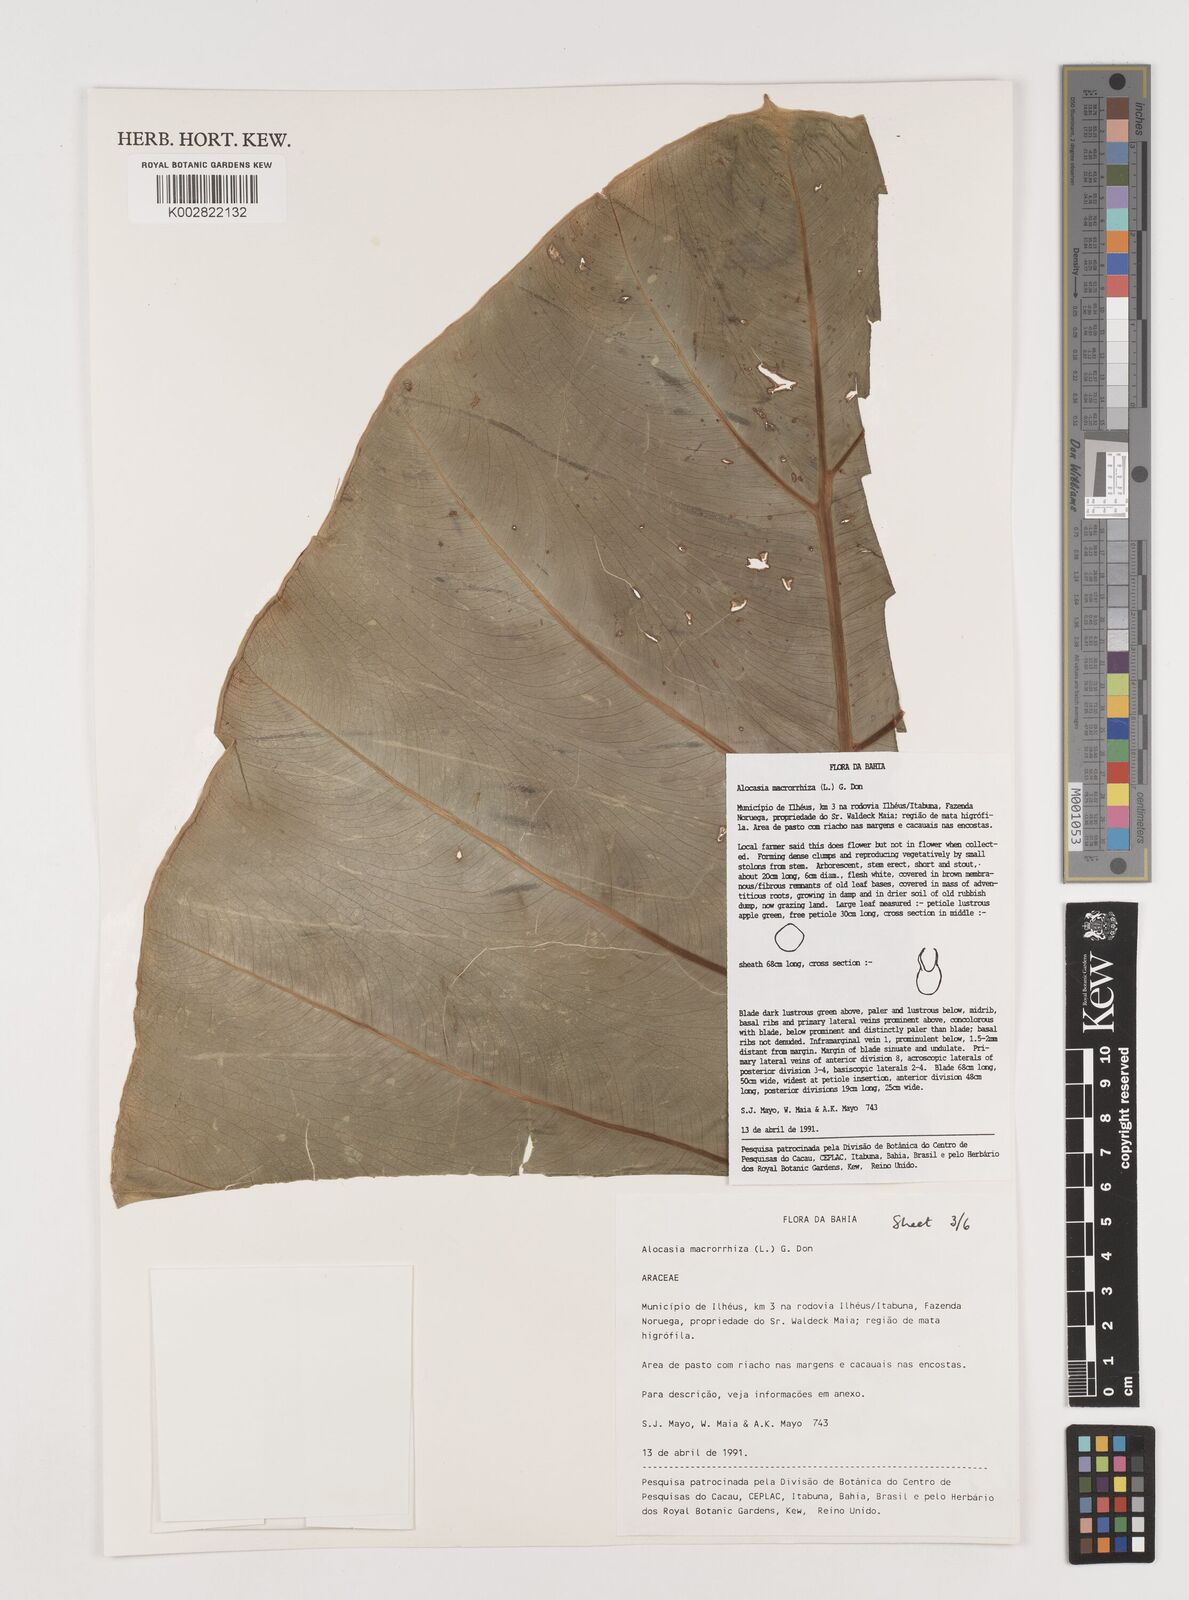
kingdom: Plantae
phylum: Tracheophyta
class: Liliopsida
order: Alismatales
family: Araceae
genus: Alocasia
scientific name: Alocasia macrorrhizos
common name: Giant taro
